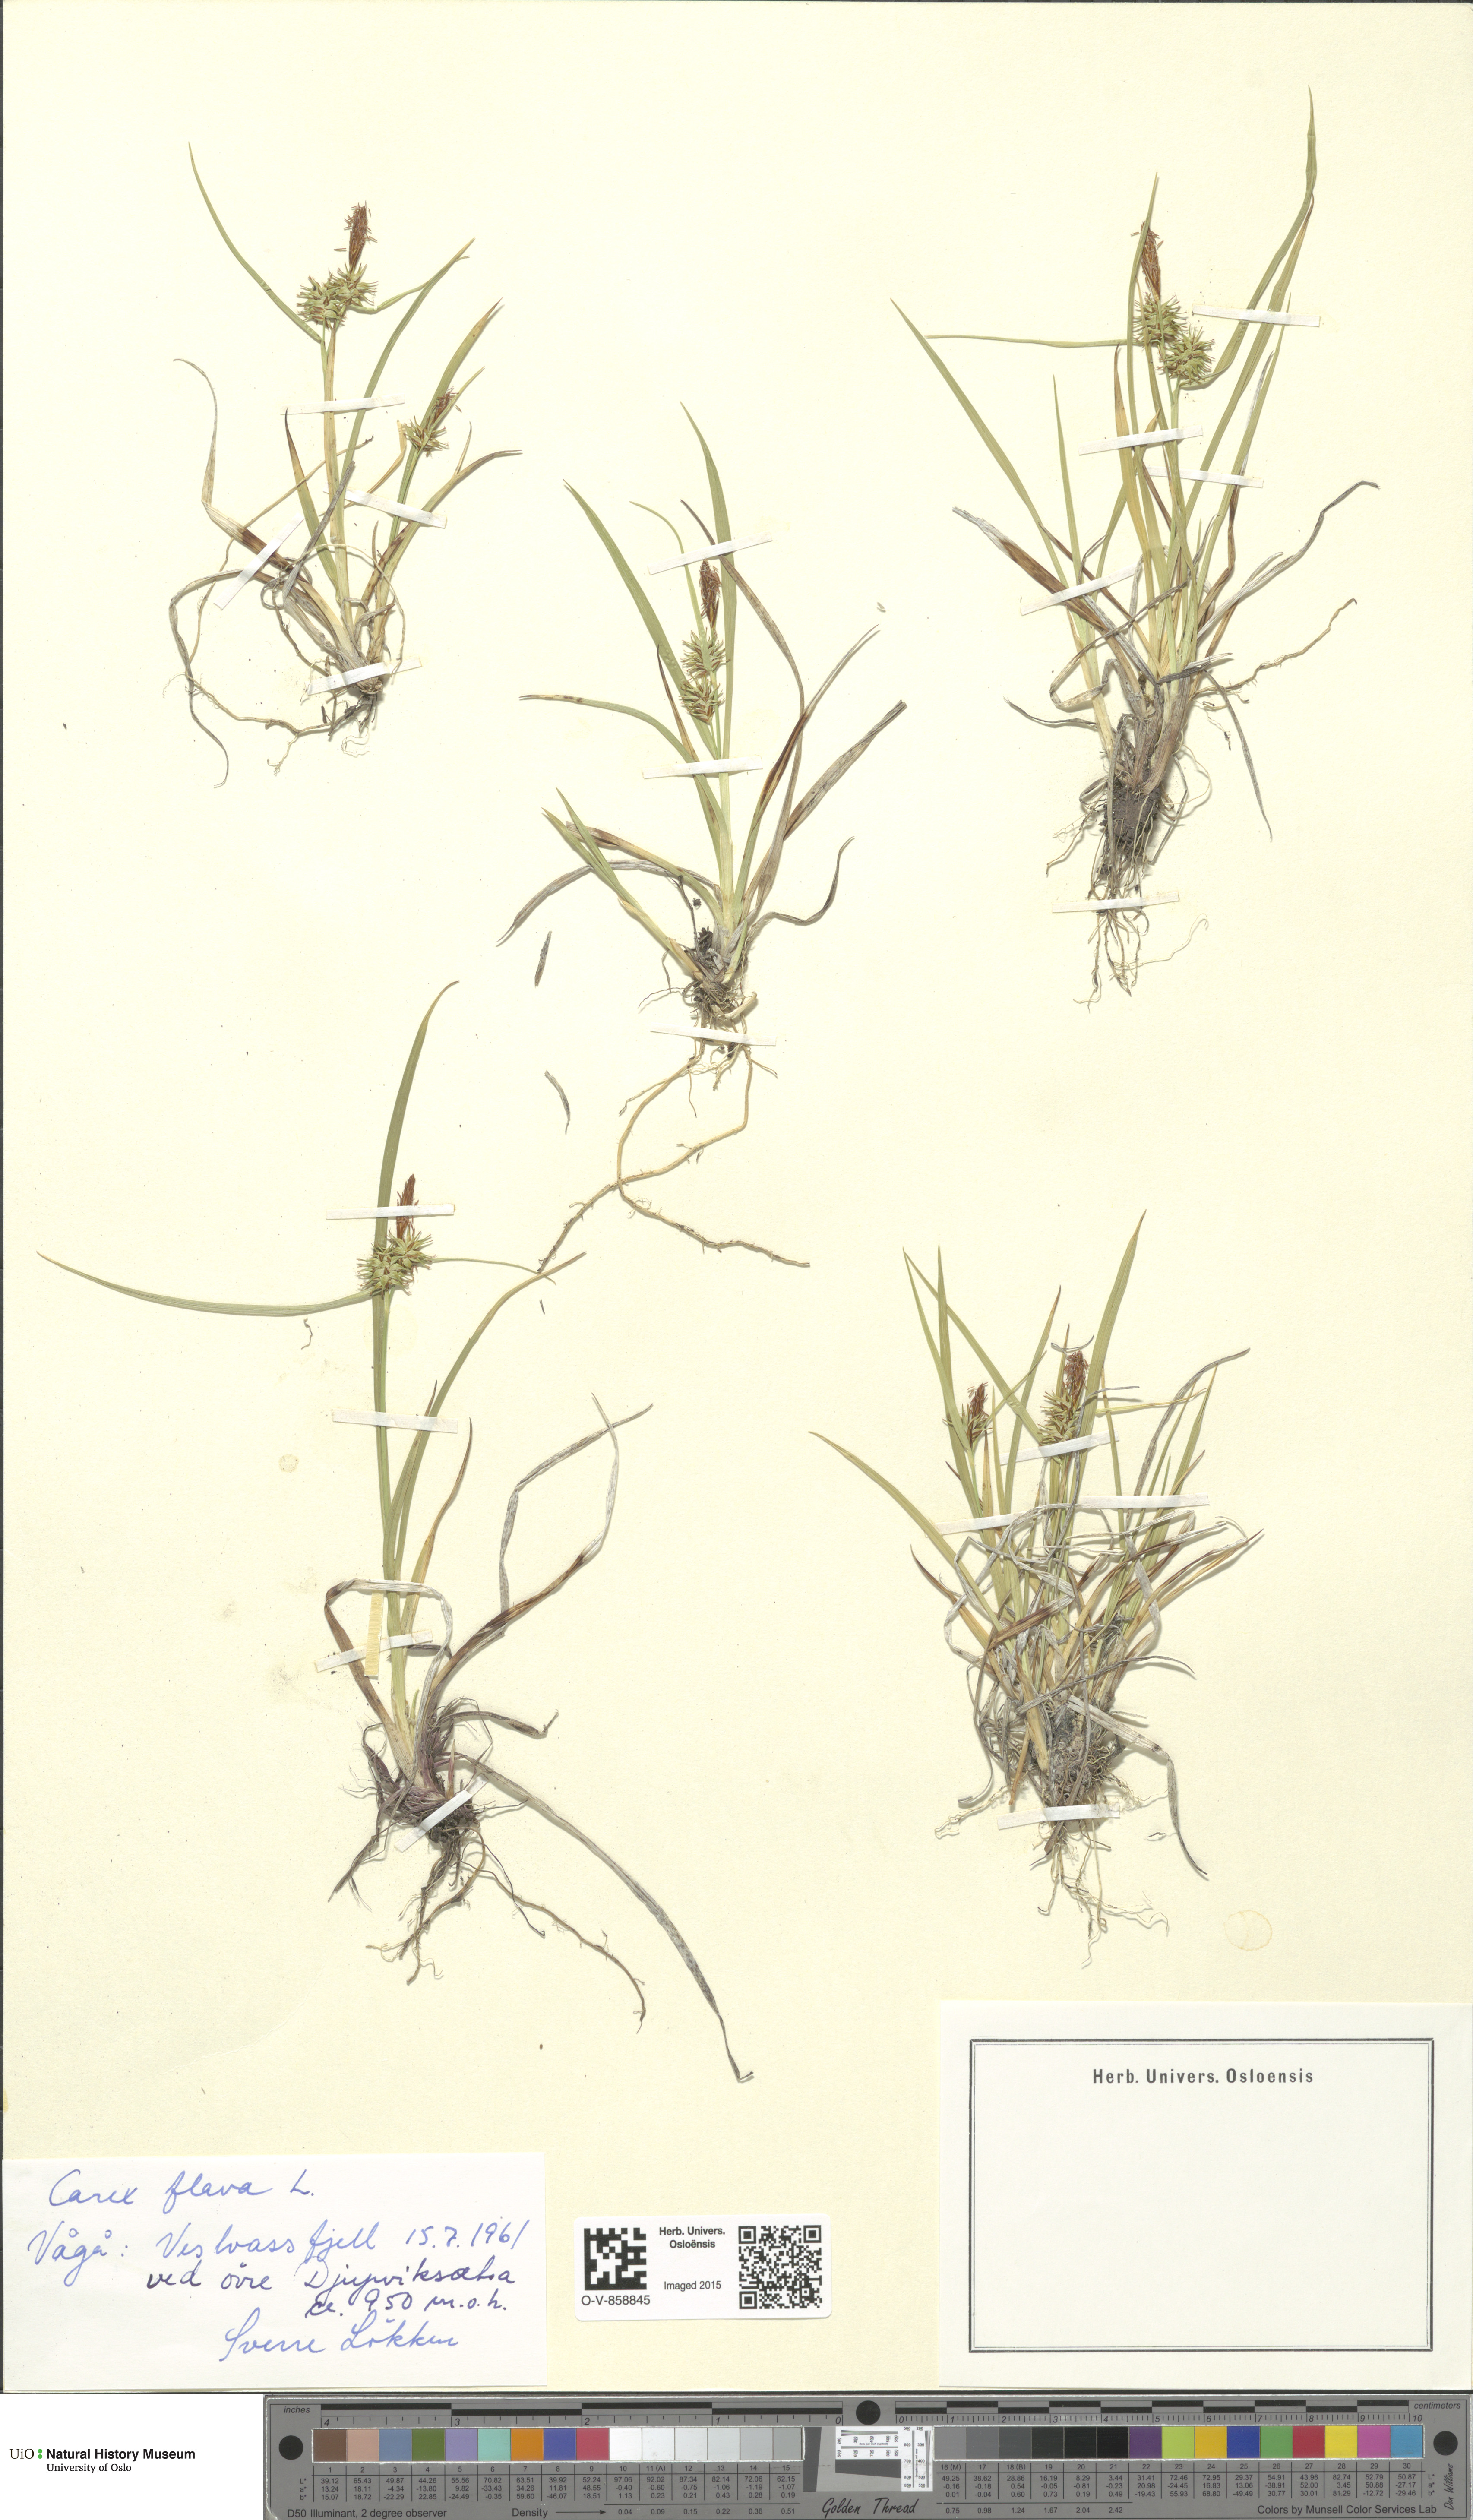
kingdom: Plantae
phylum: Tracheophyta
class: Liliopsida
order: Poales
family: Cyperaceae
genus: Carex
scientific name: Carex flava
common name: Large yellow-sedge
